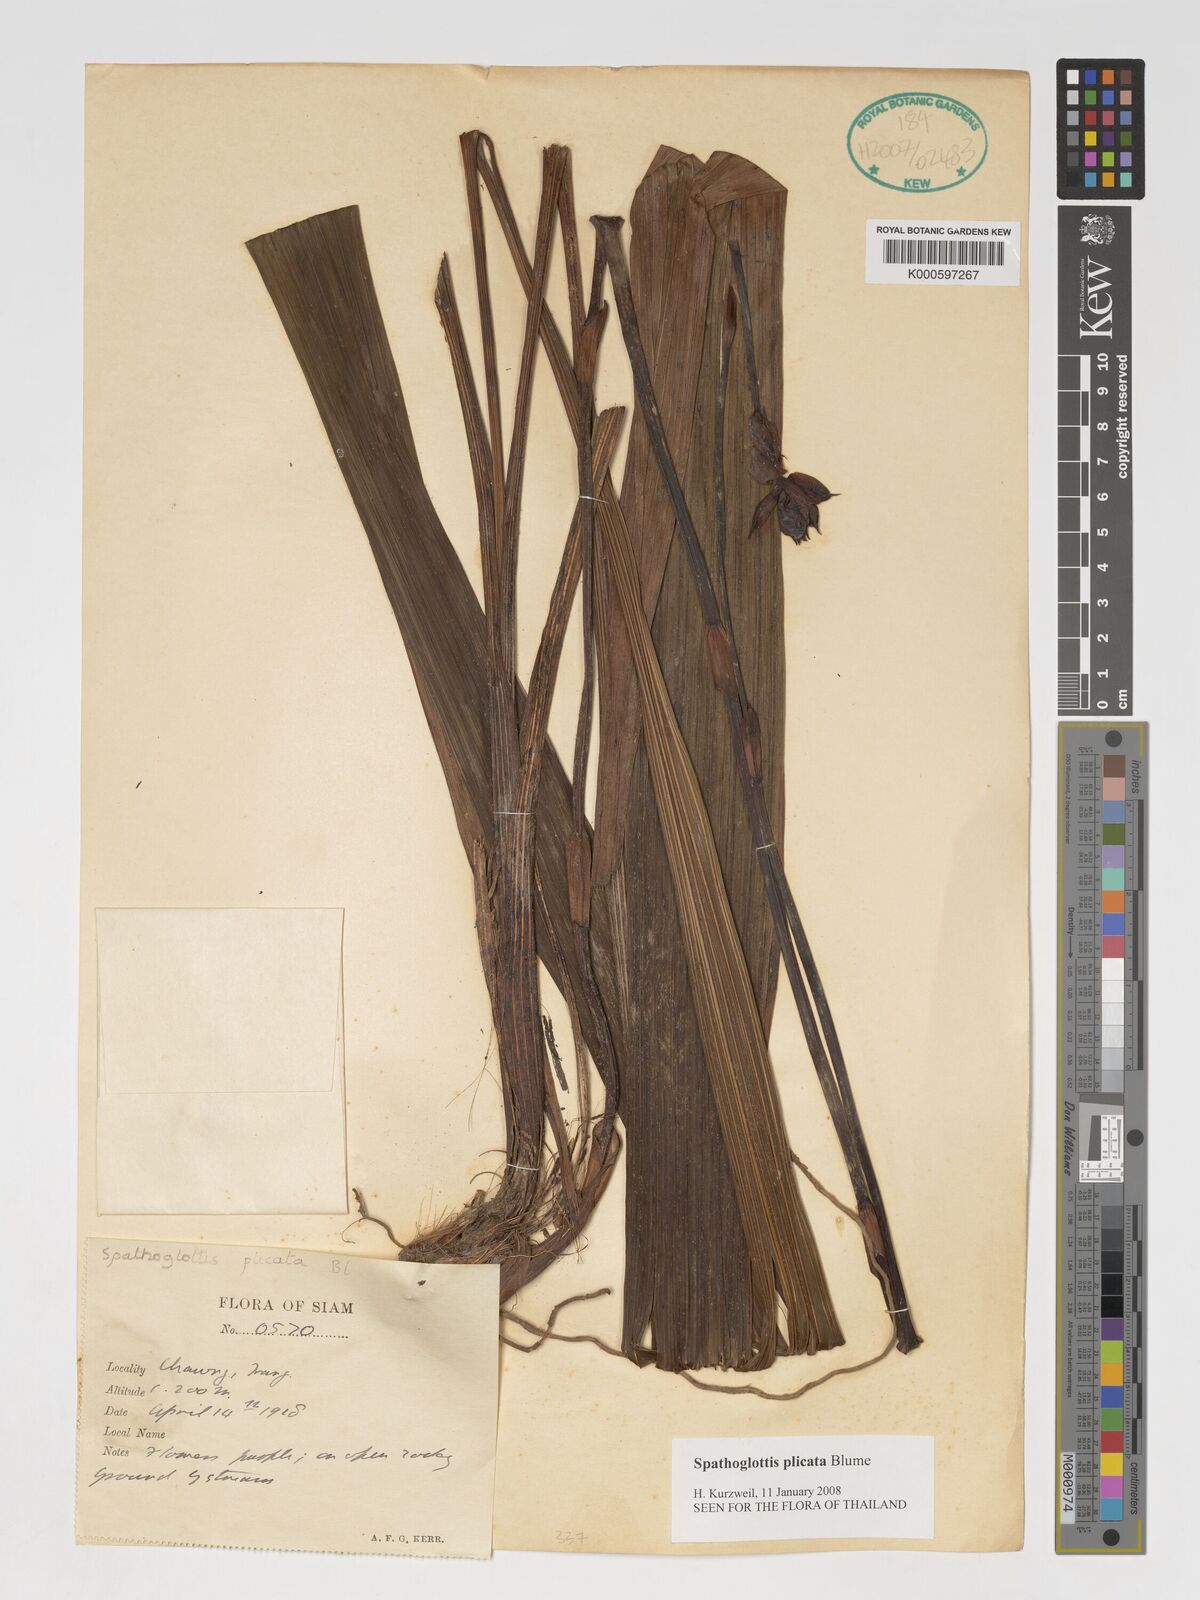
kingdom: Plantae
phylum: Tracheophyta
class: Liliopsida
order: Asparagales
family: Orchidaceae
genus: Spathoglottis
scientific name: Spathoglottis plicata
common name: Philippine ground orchid
